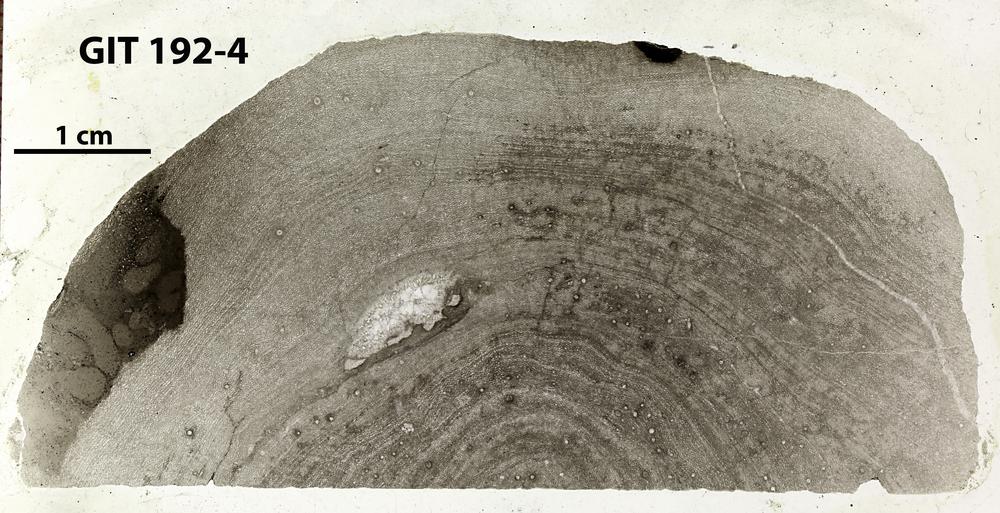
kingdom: Animalia
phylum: Porifera
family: Ecclimadictyidae
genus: Ecclimadictyon
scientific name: Ecclimadictyon macrotuberculatum
